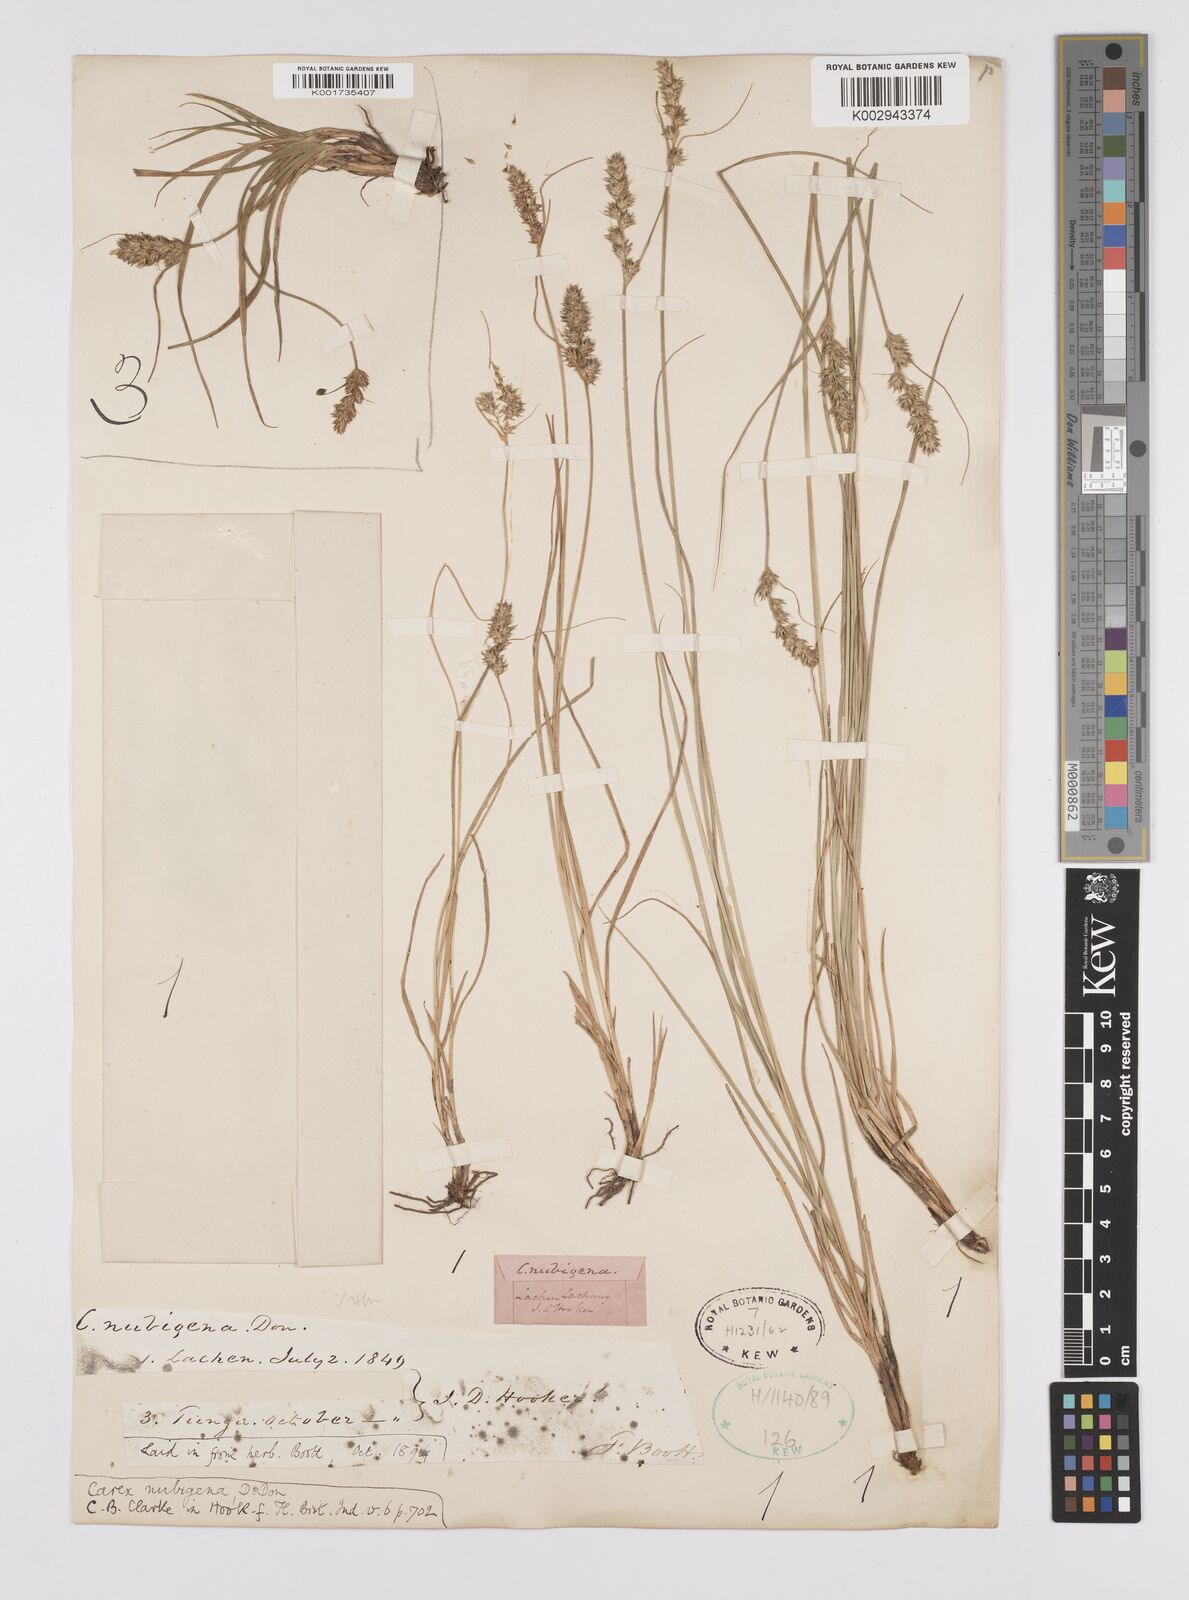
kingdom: Plantae
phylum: Tracheophyta
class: Liliopsida
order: Poales
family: Cyperaceae
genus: Carex
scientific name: Carex nubigena
